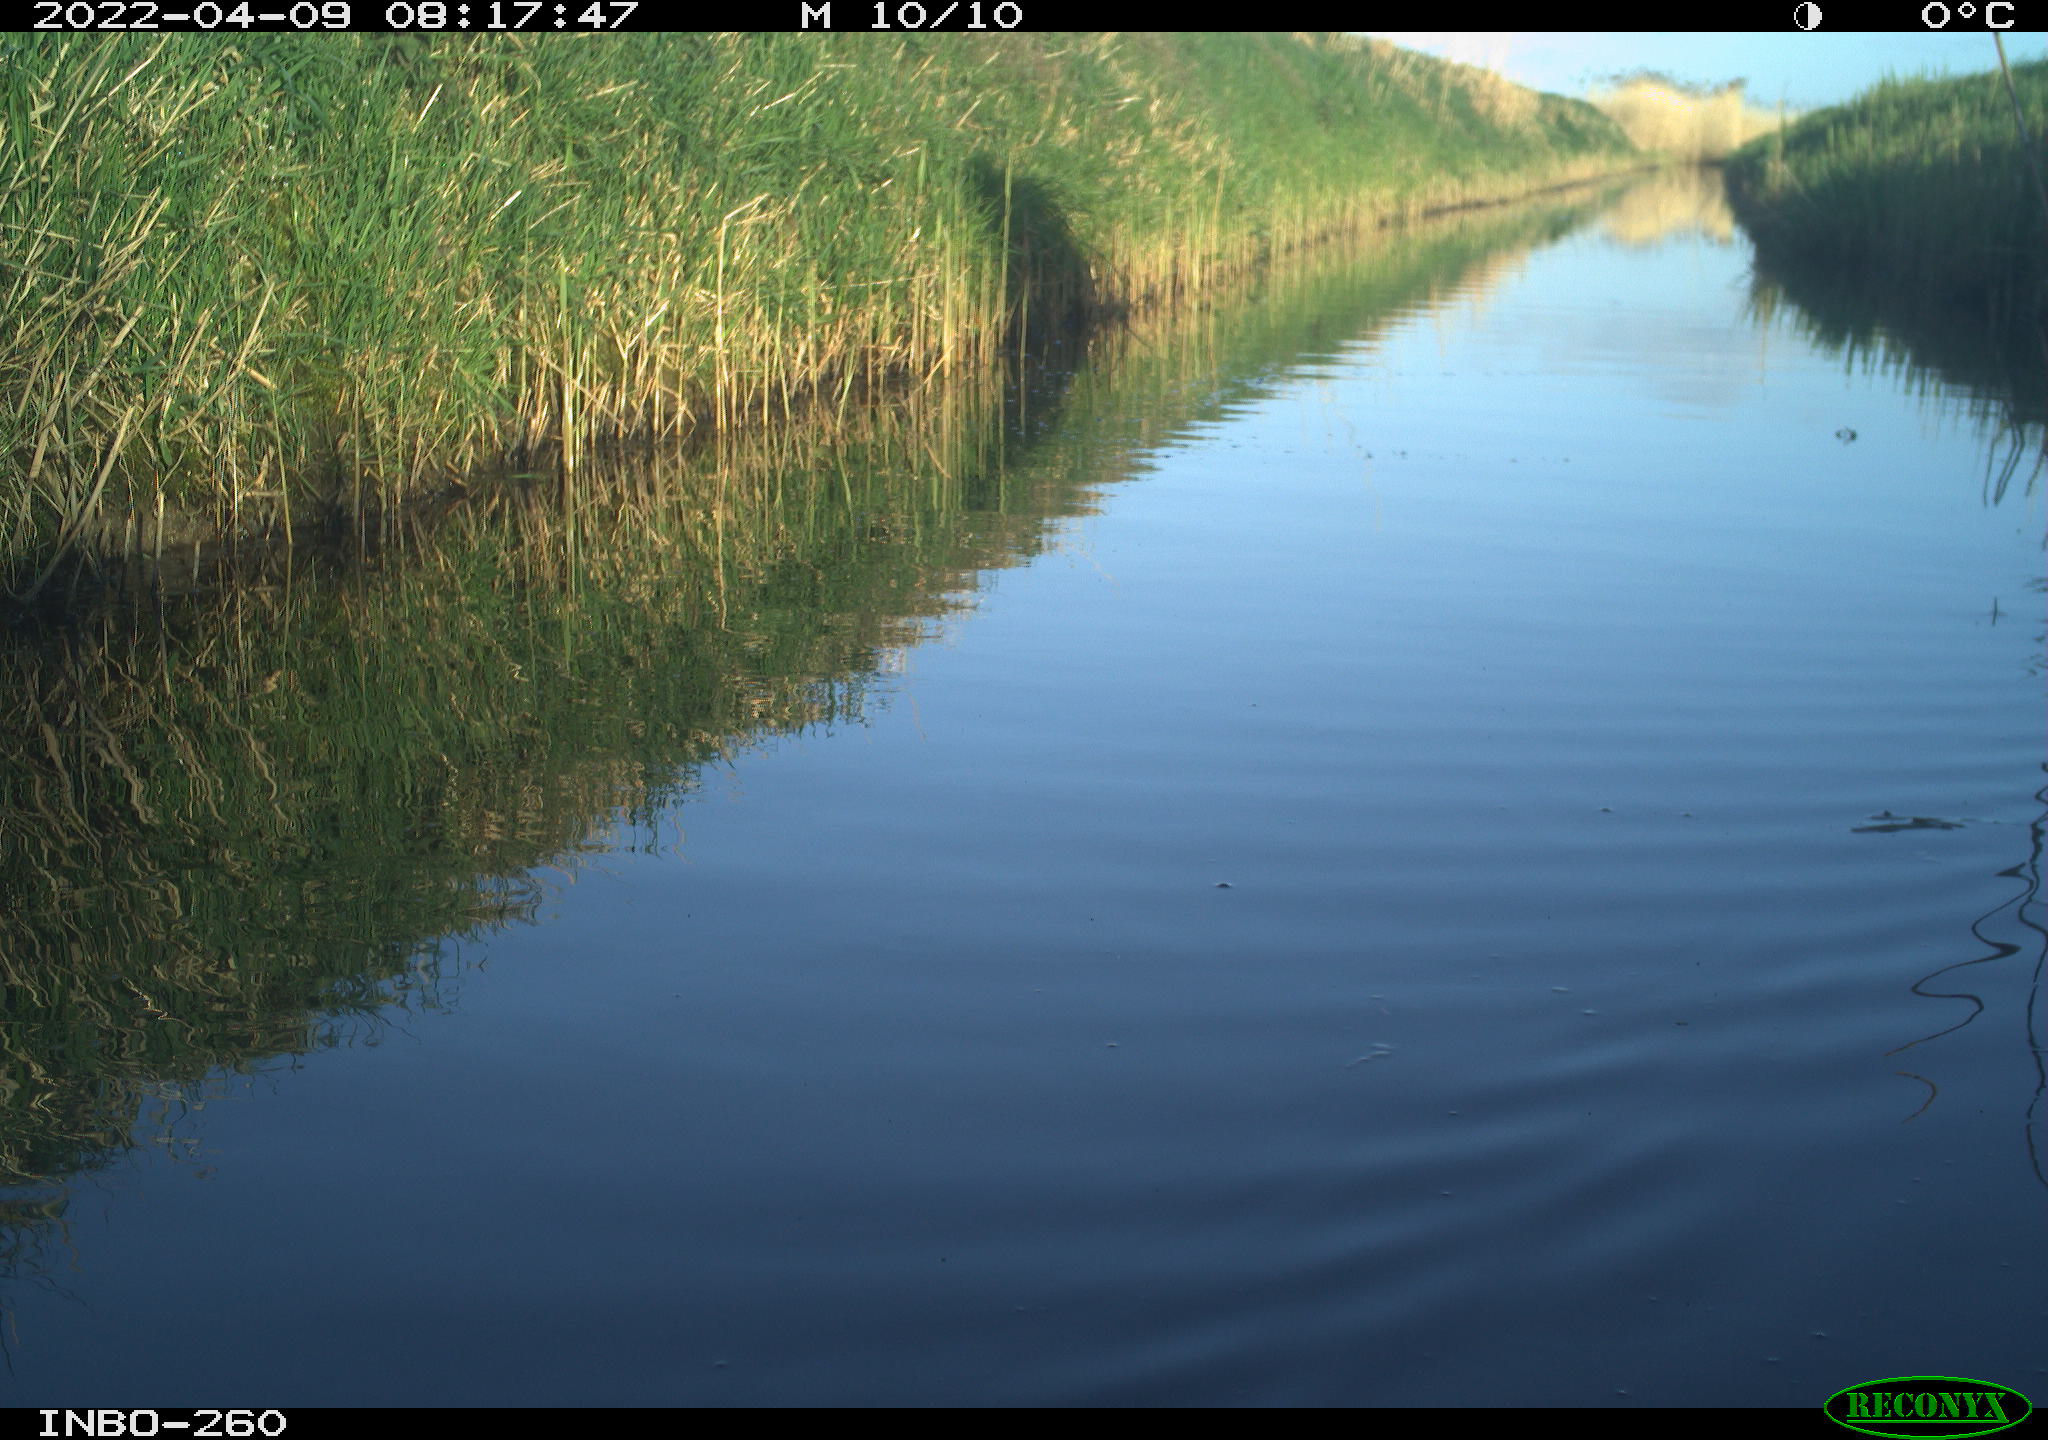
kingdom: Animalia
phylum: Chordata
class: Aves
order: Gruiformes
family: Rallidae
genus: Fulica
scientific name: Fulica atra
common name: Eurasian coot
